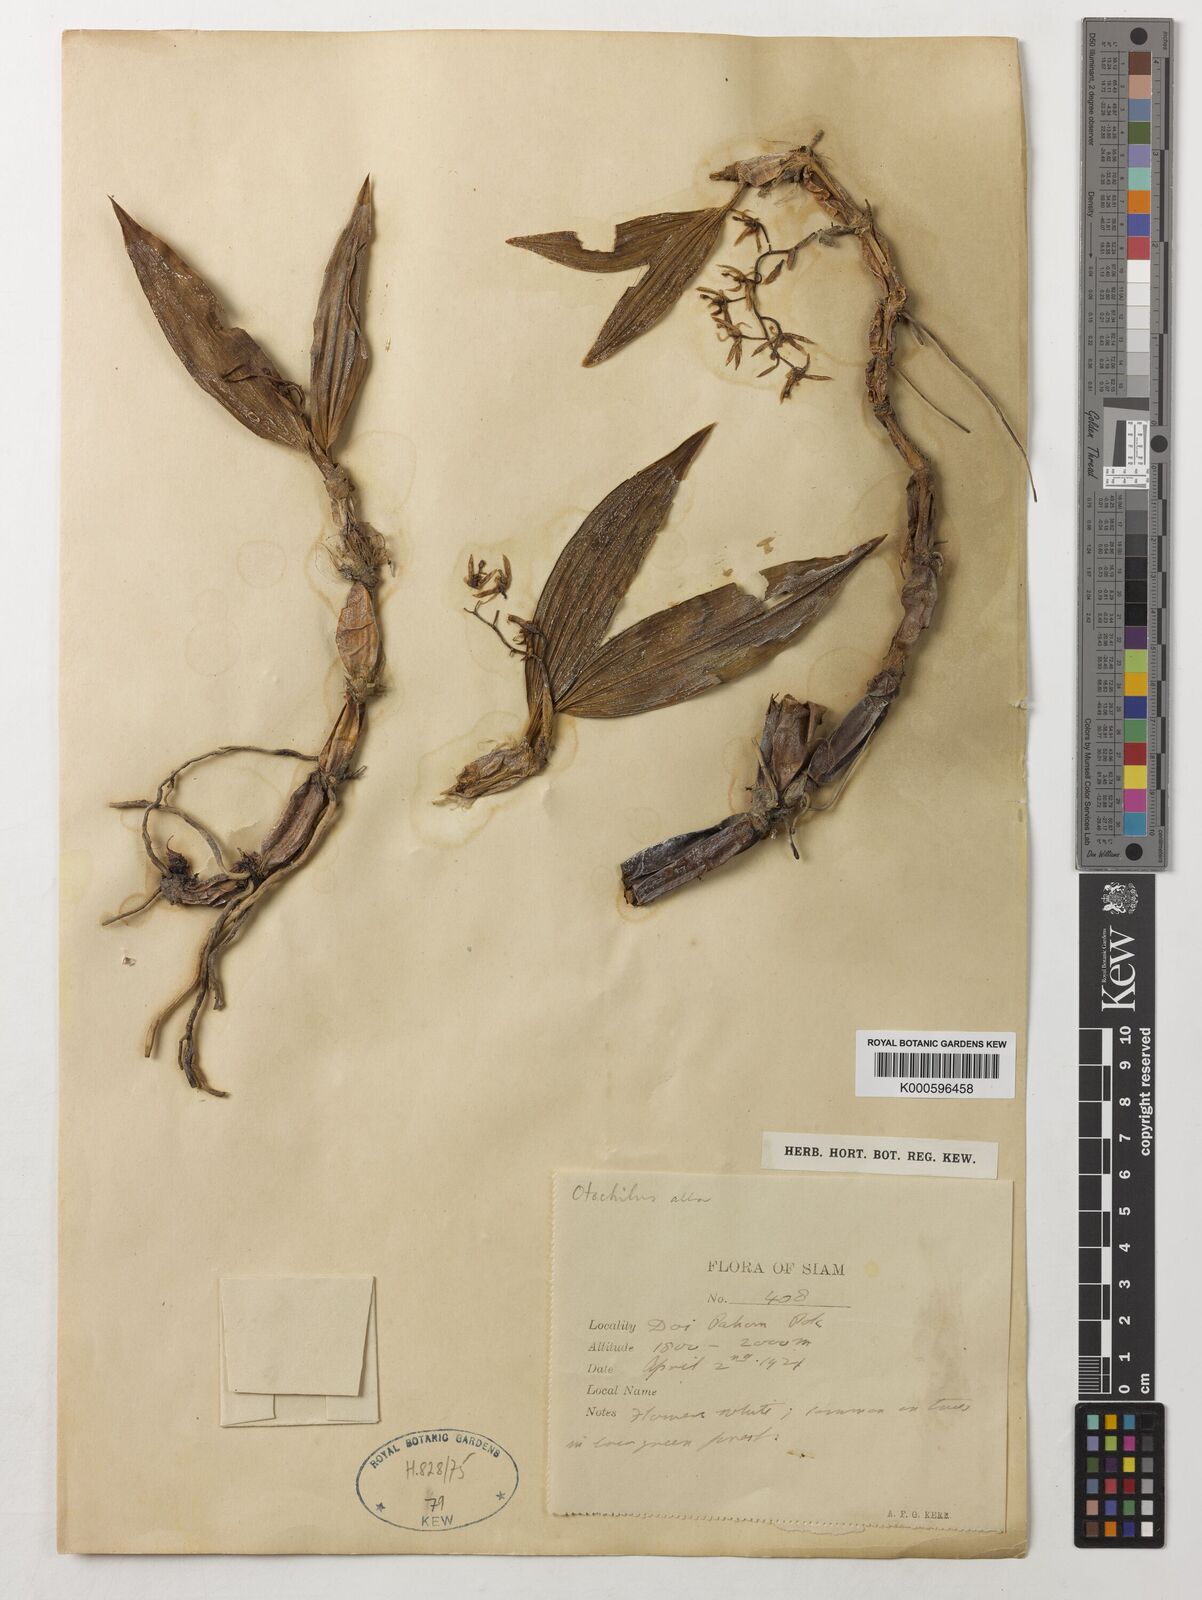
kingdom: Plantae
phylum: Tracheophyta
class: Liliopsida
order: Asparagales
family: Orchidaceae
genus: Coelogyne
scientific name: Coelogyne alba
